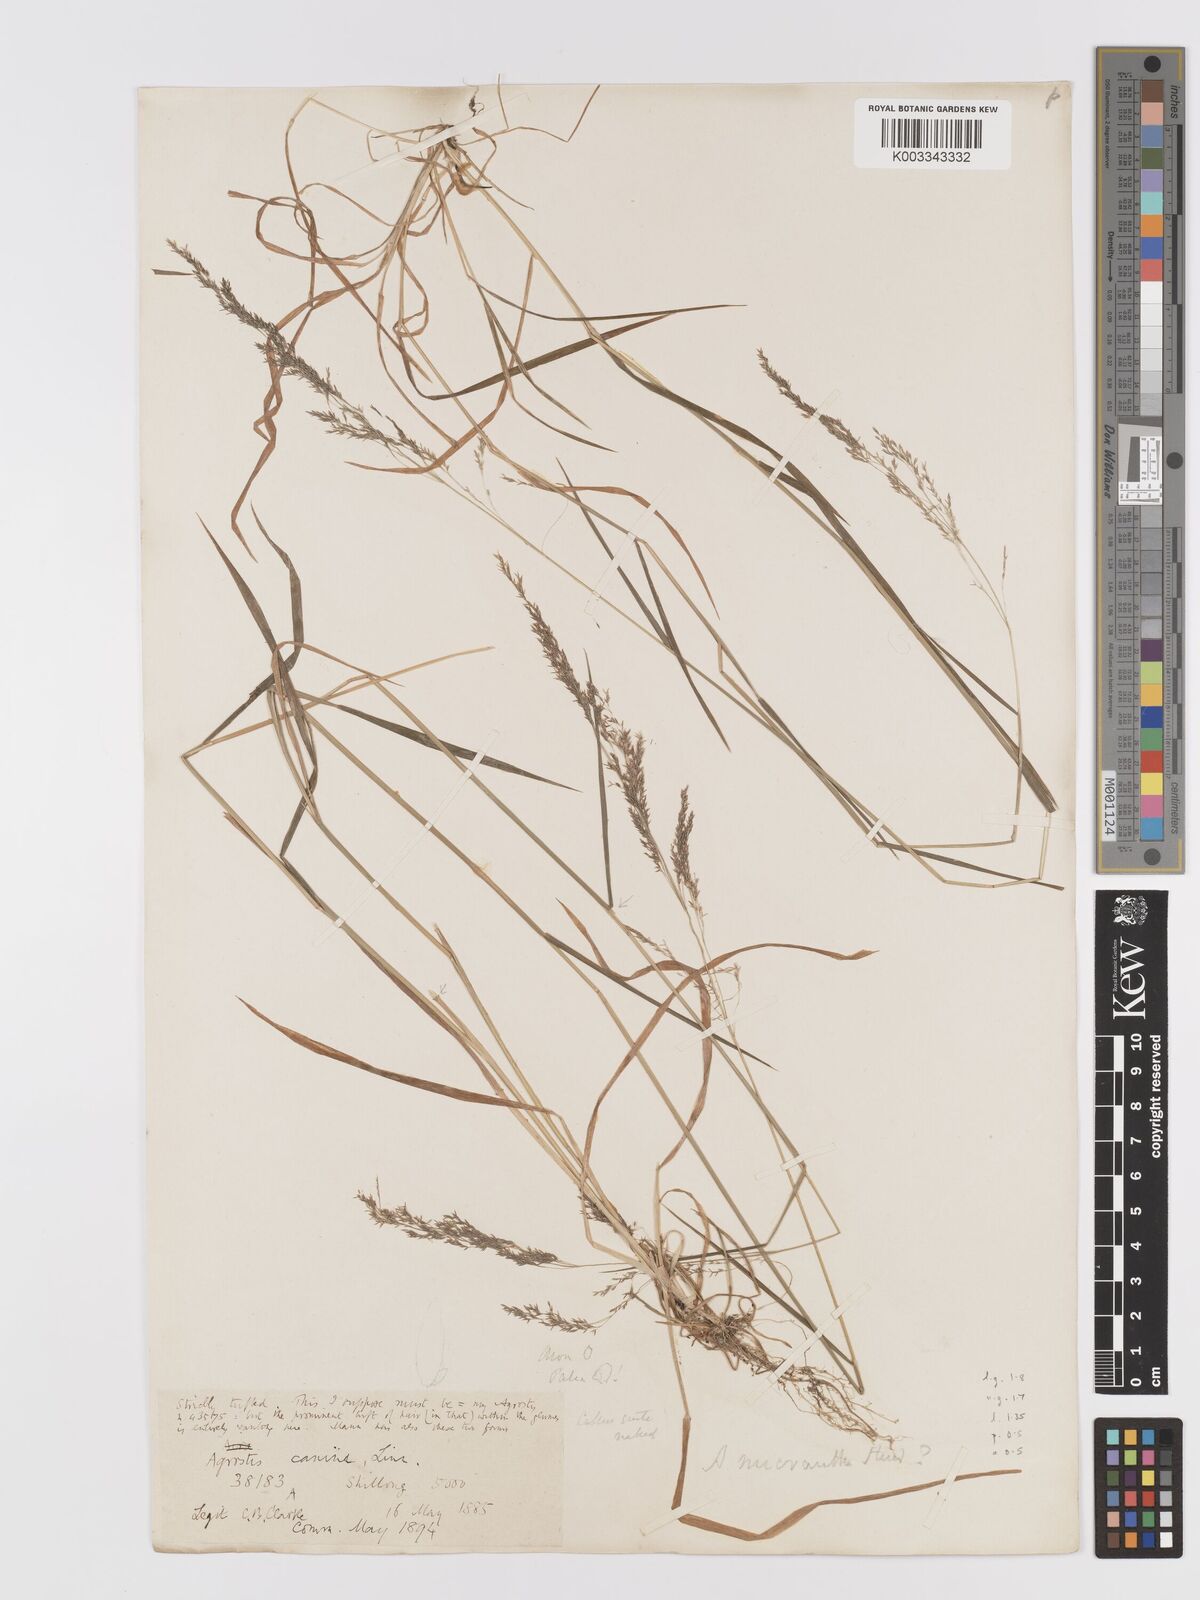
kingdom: Plantae
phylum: Tracheophyta
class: Liliopsida
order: Poales
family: Poaceae
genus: Agrostis
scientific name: Agrostis micrantha
